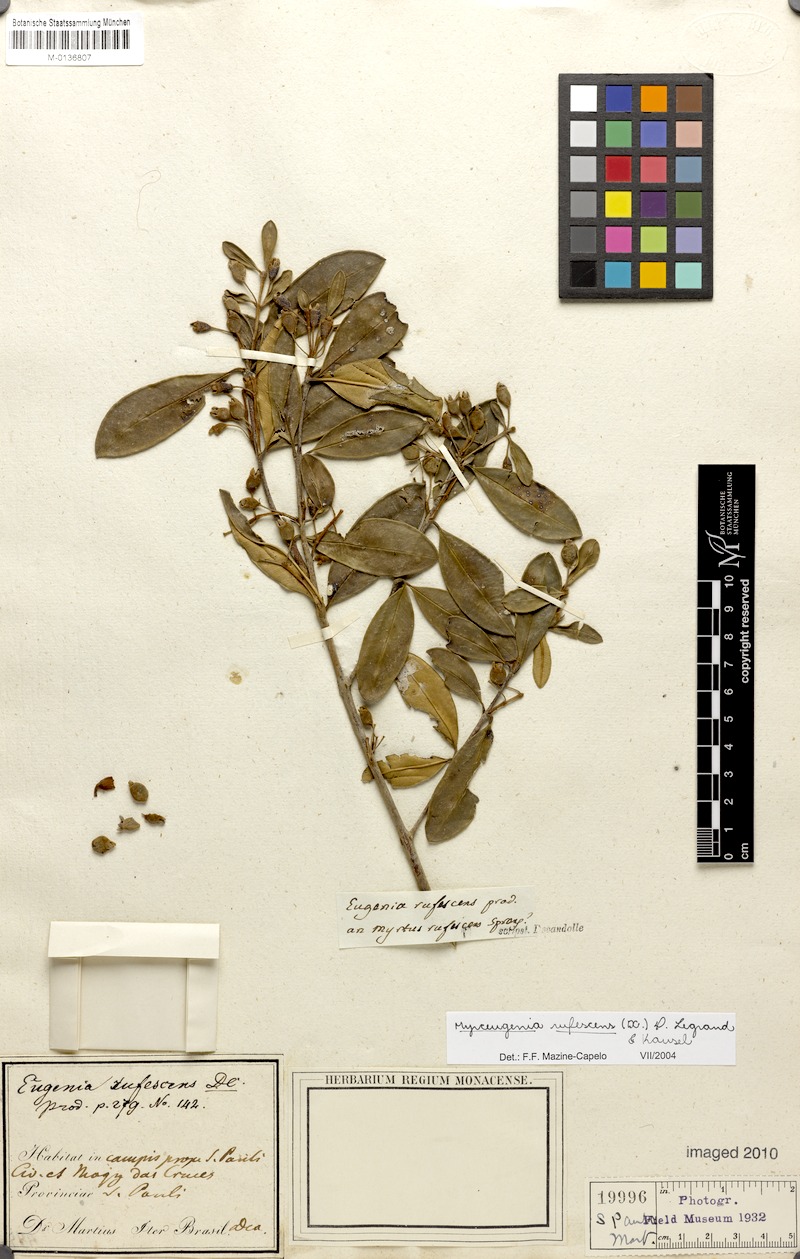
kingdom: Plantae
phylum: Tracheophyta
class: Magnoliopsida
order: Myrtales
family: Myrtaceae
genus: Myrceugenia
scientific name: Myrceugenia rufescens
